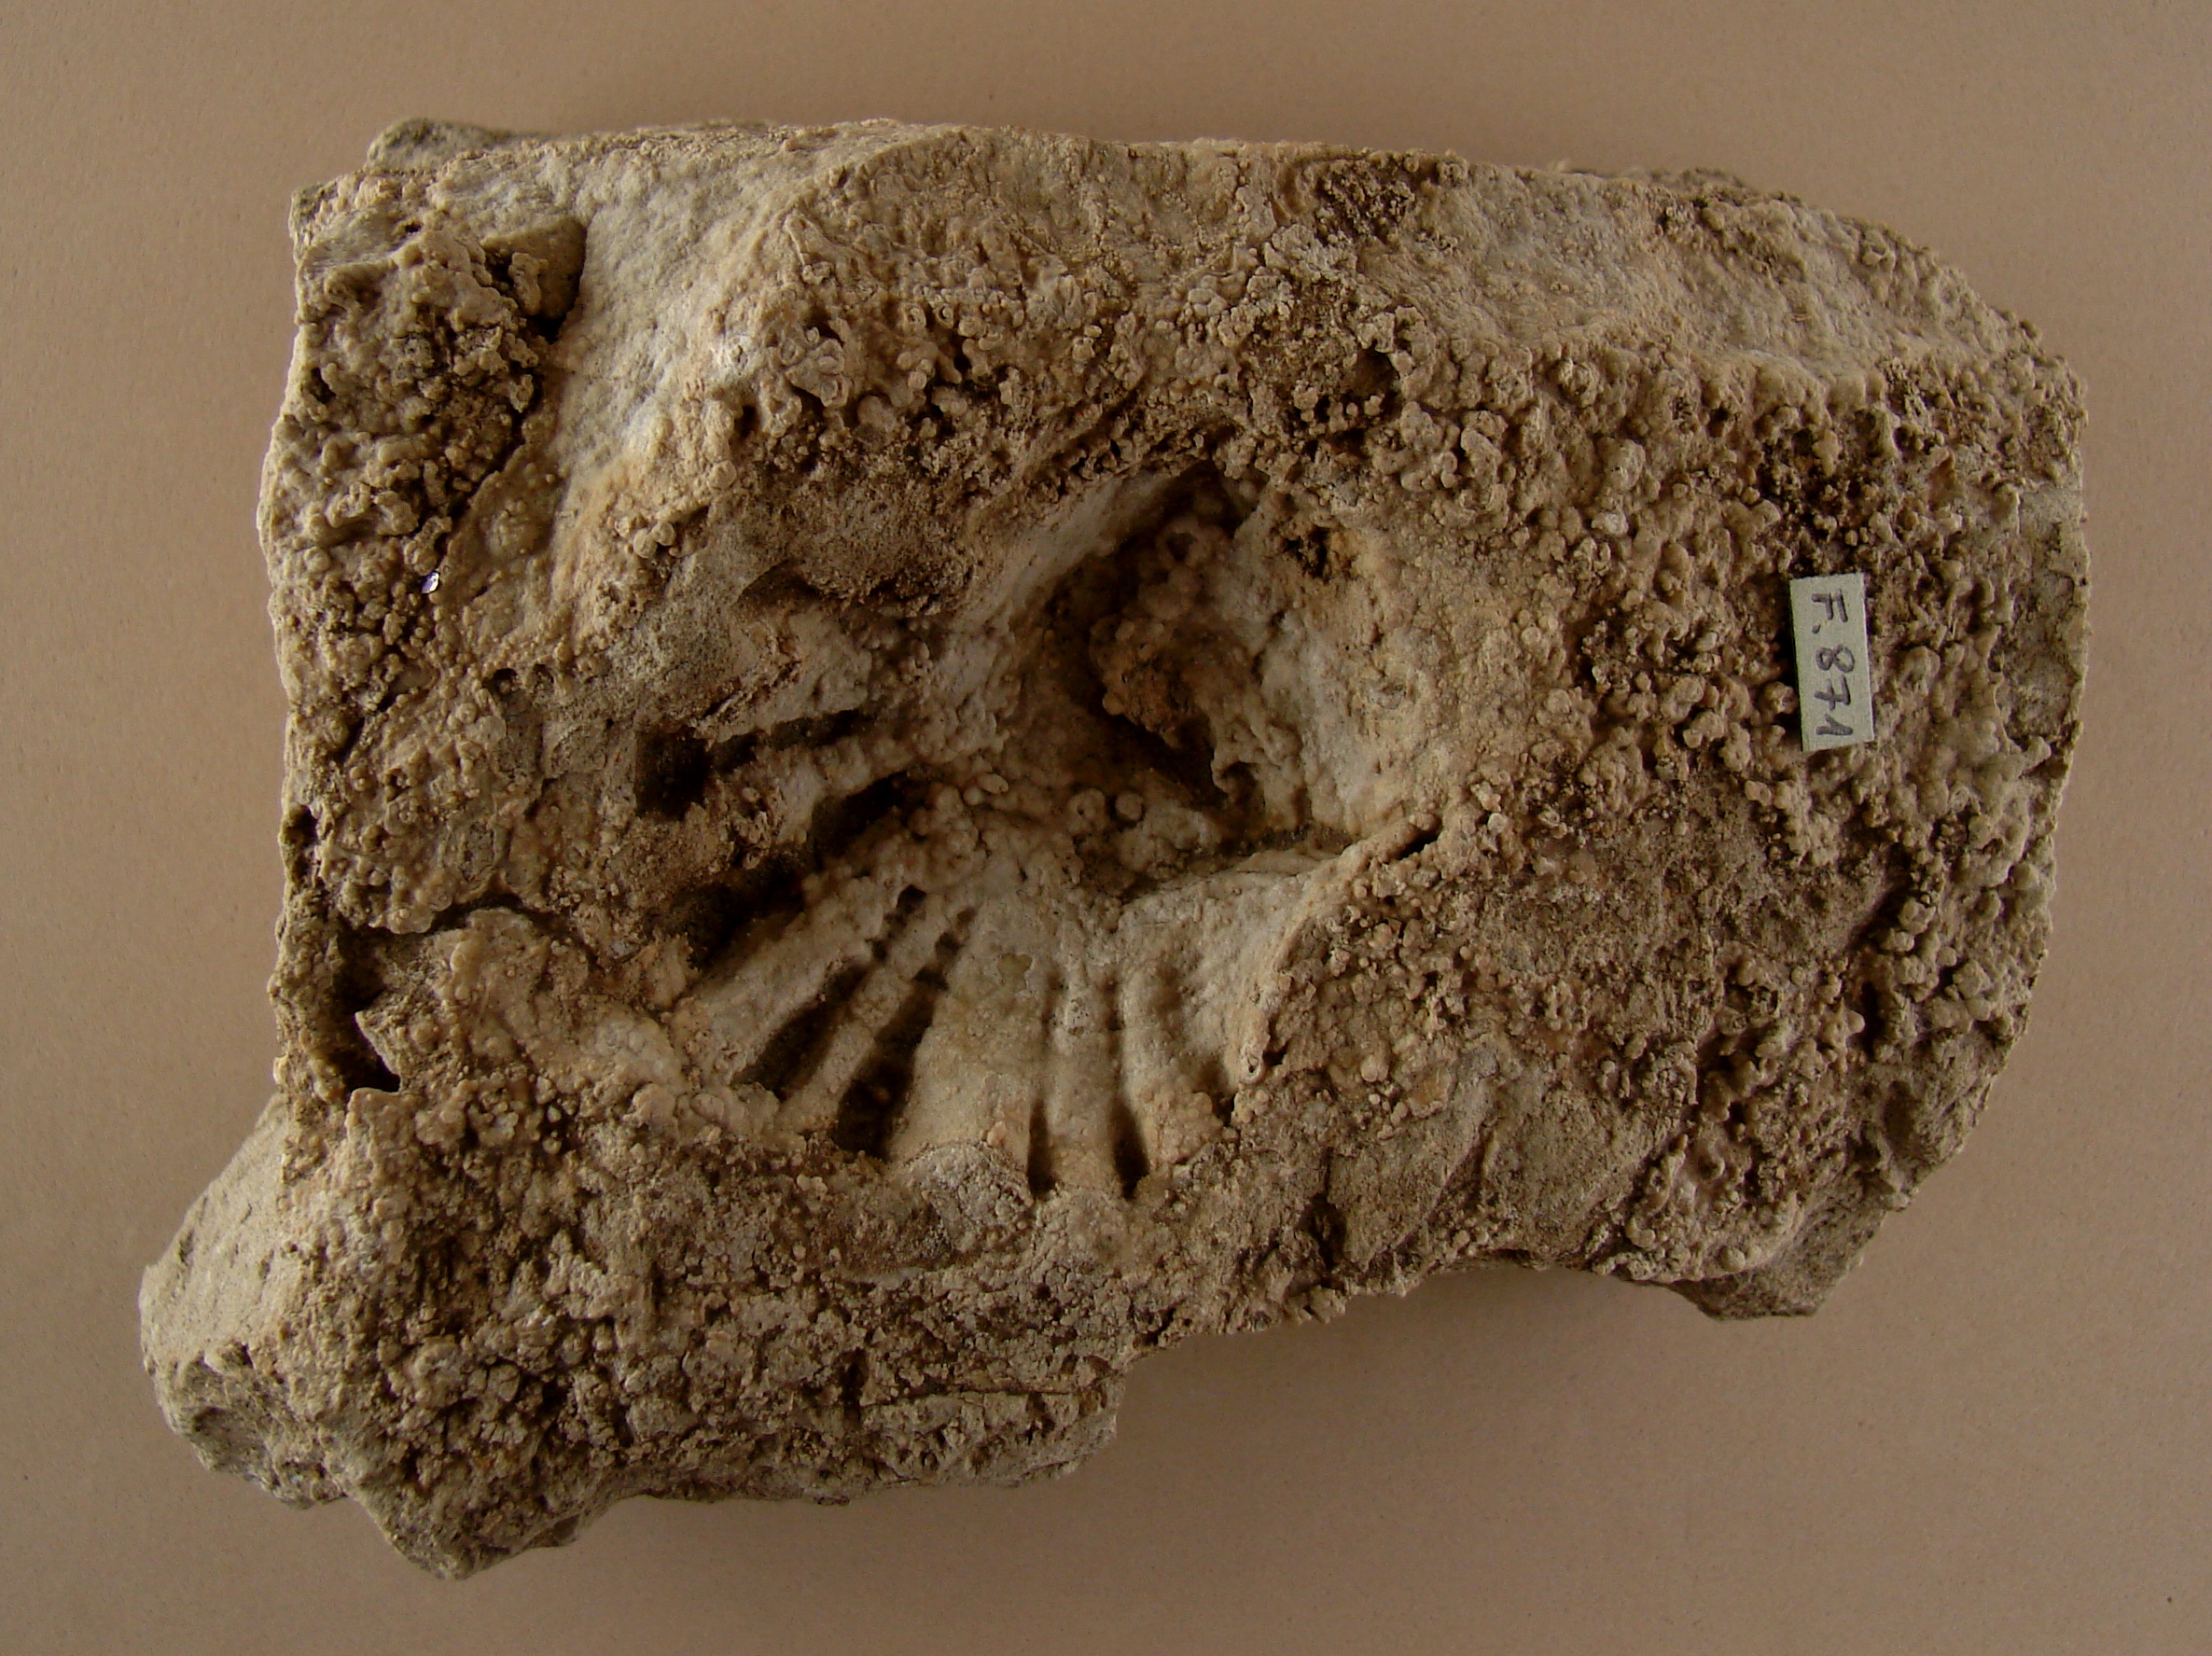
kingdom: Animalia
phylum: Mollusca
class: Bivalvia
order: Ostreida
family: Ostreidae
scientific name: Ostreidae
